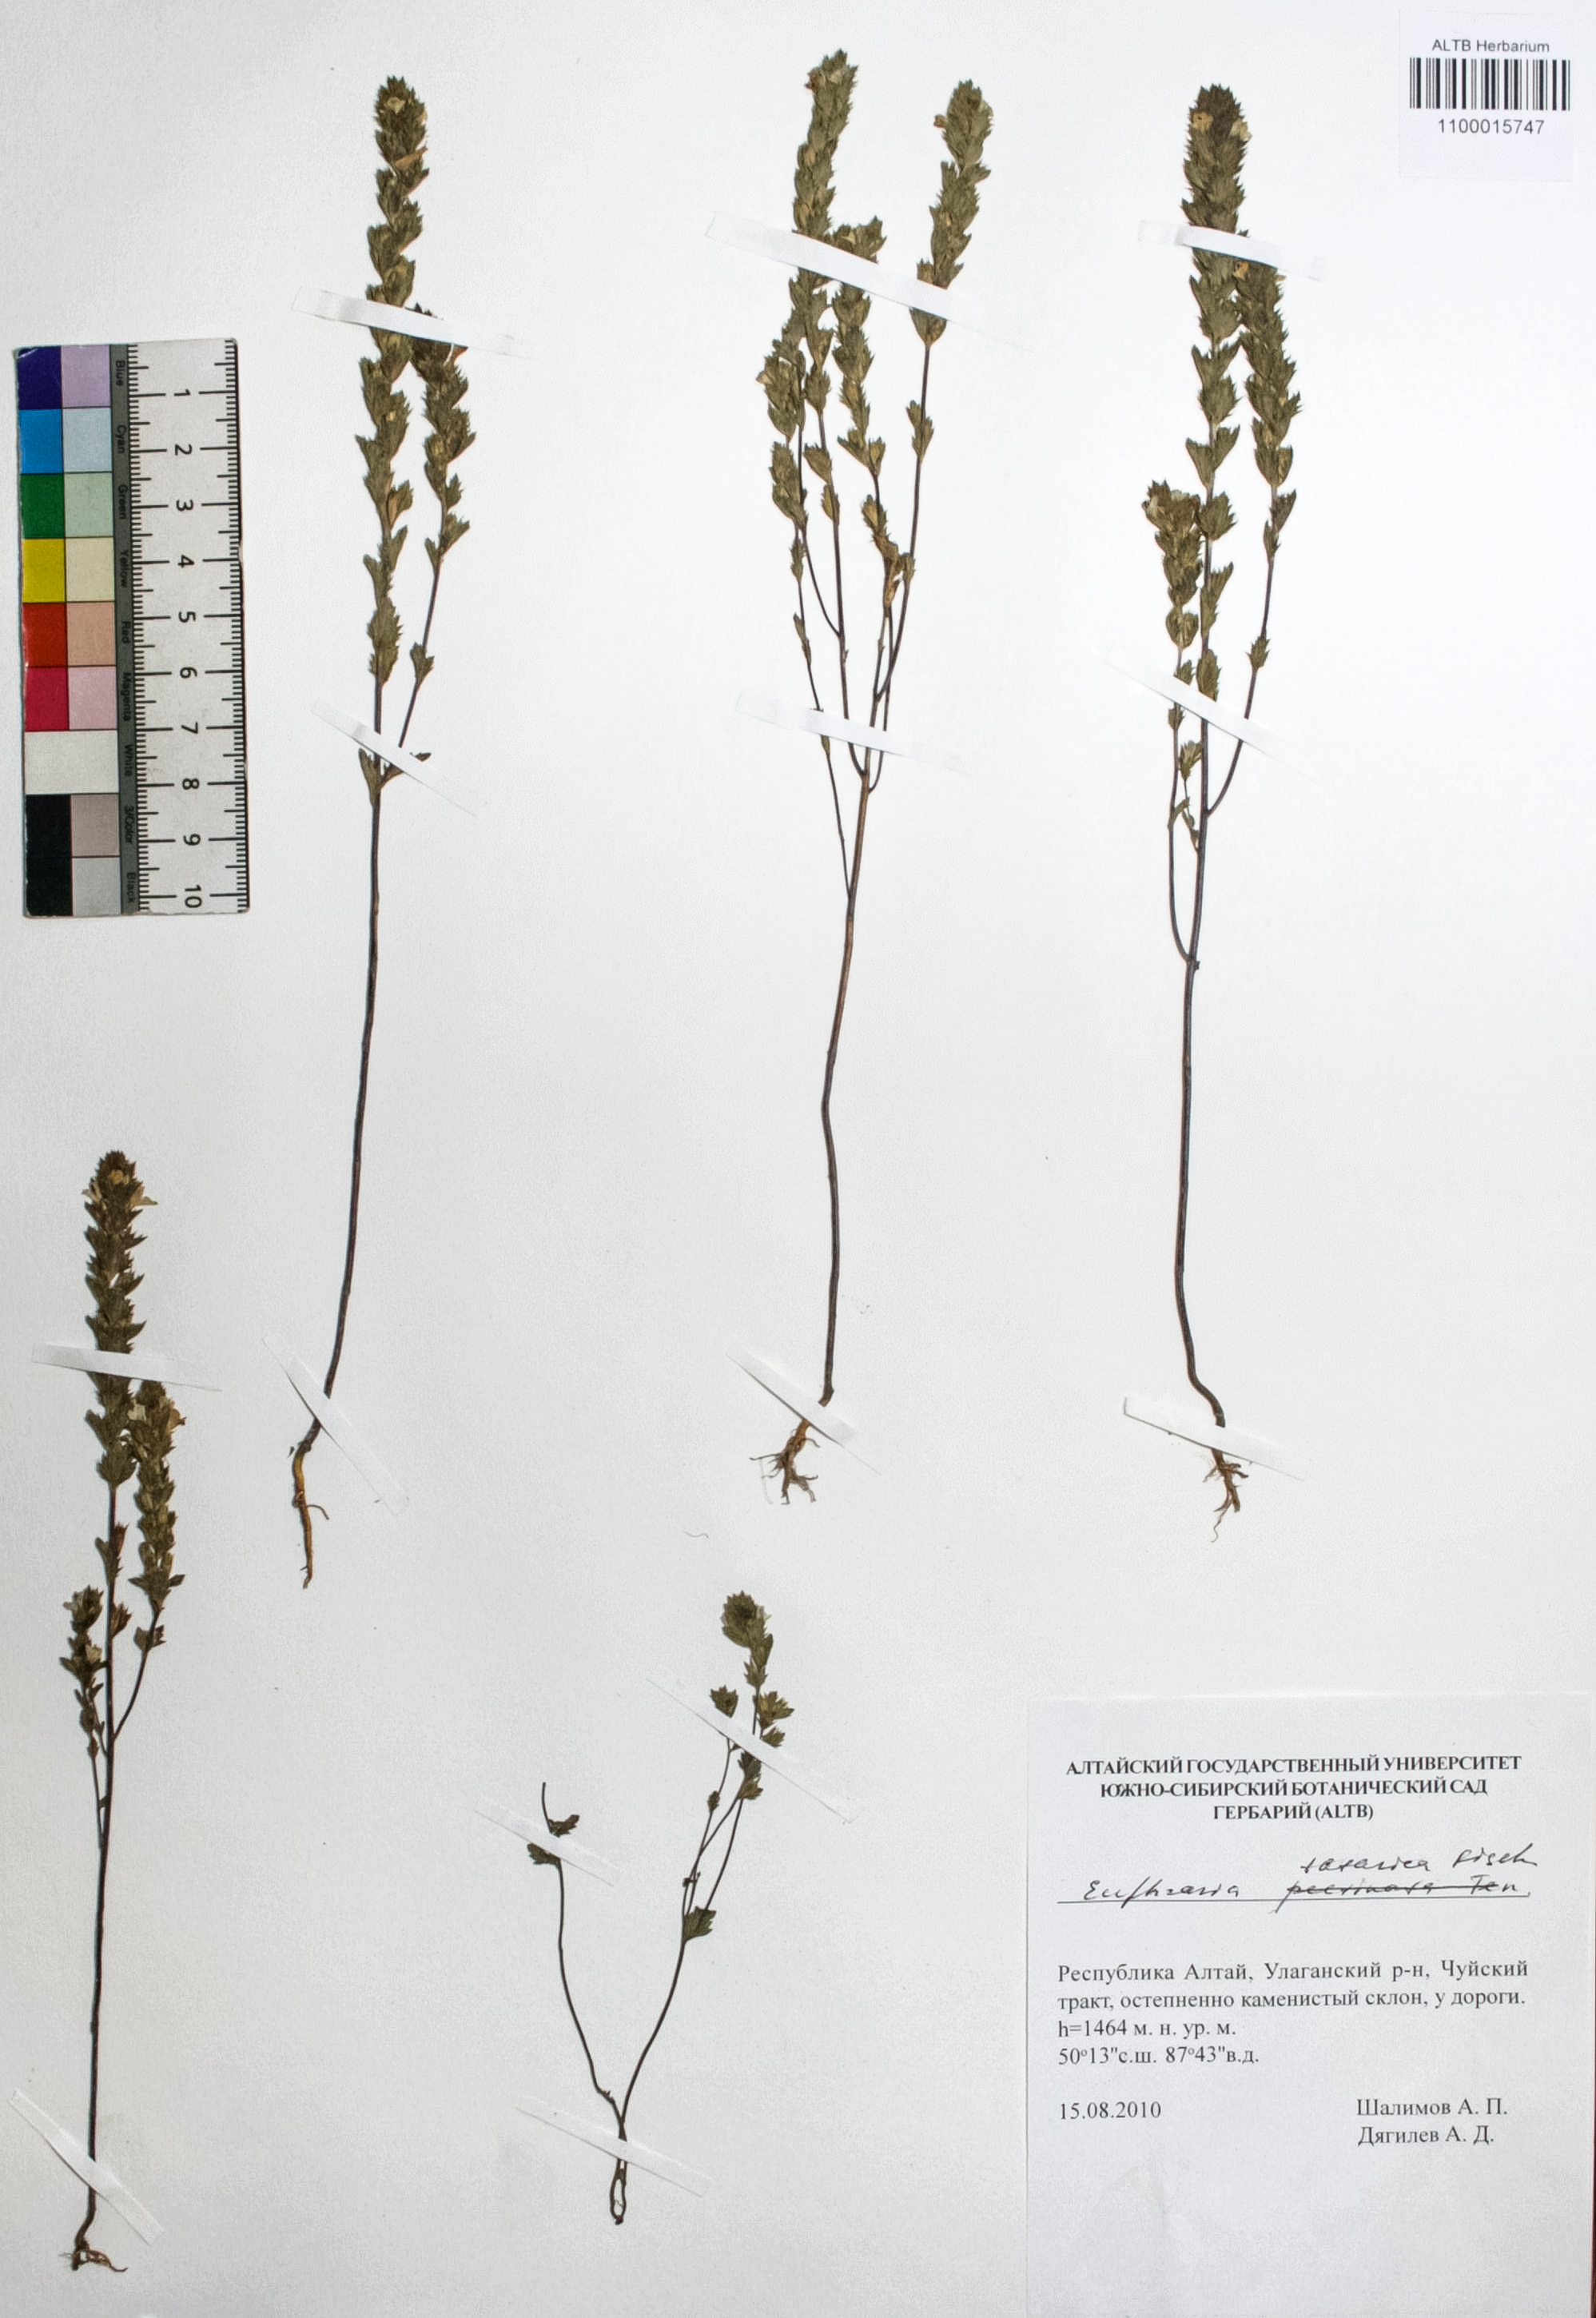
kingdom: Plantae
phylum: Tracheophyta
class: Magnoliopsida
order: Lamiales
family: Orobanchaceae
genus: Euphrasia
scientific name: Euphrasia pectinata
